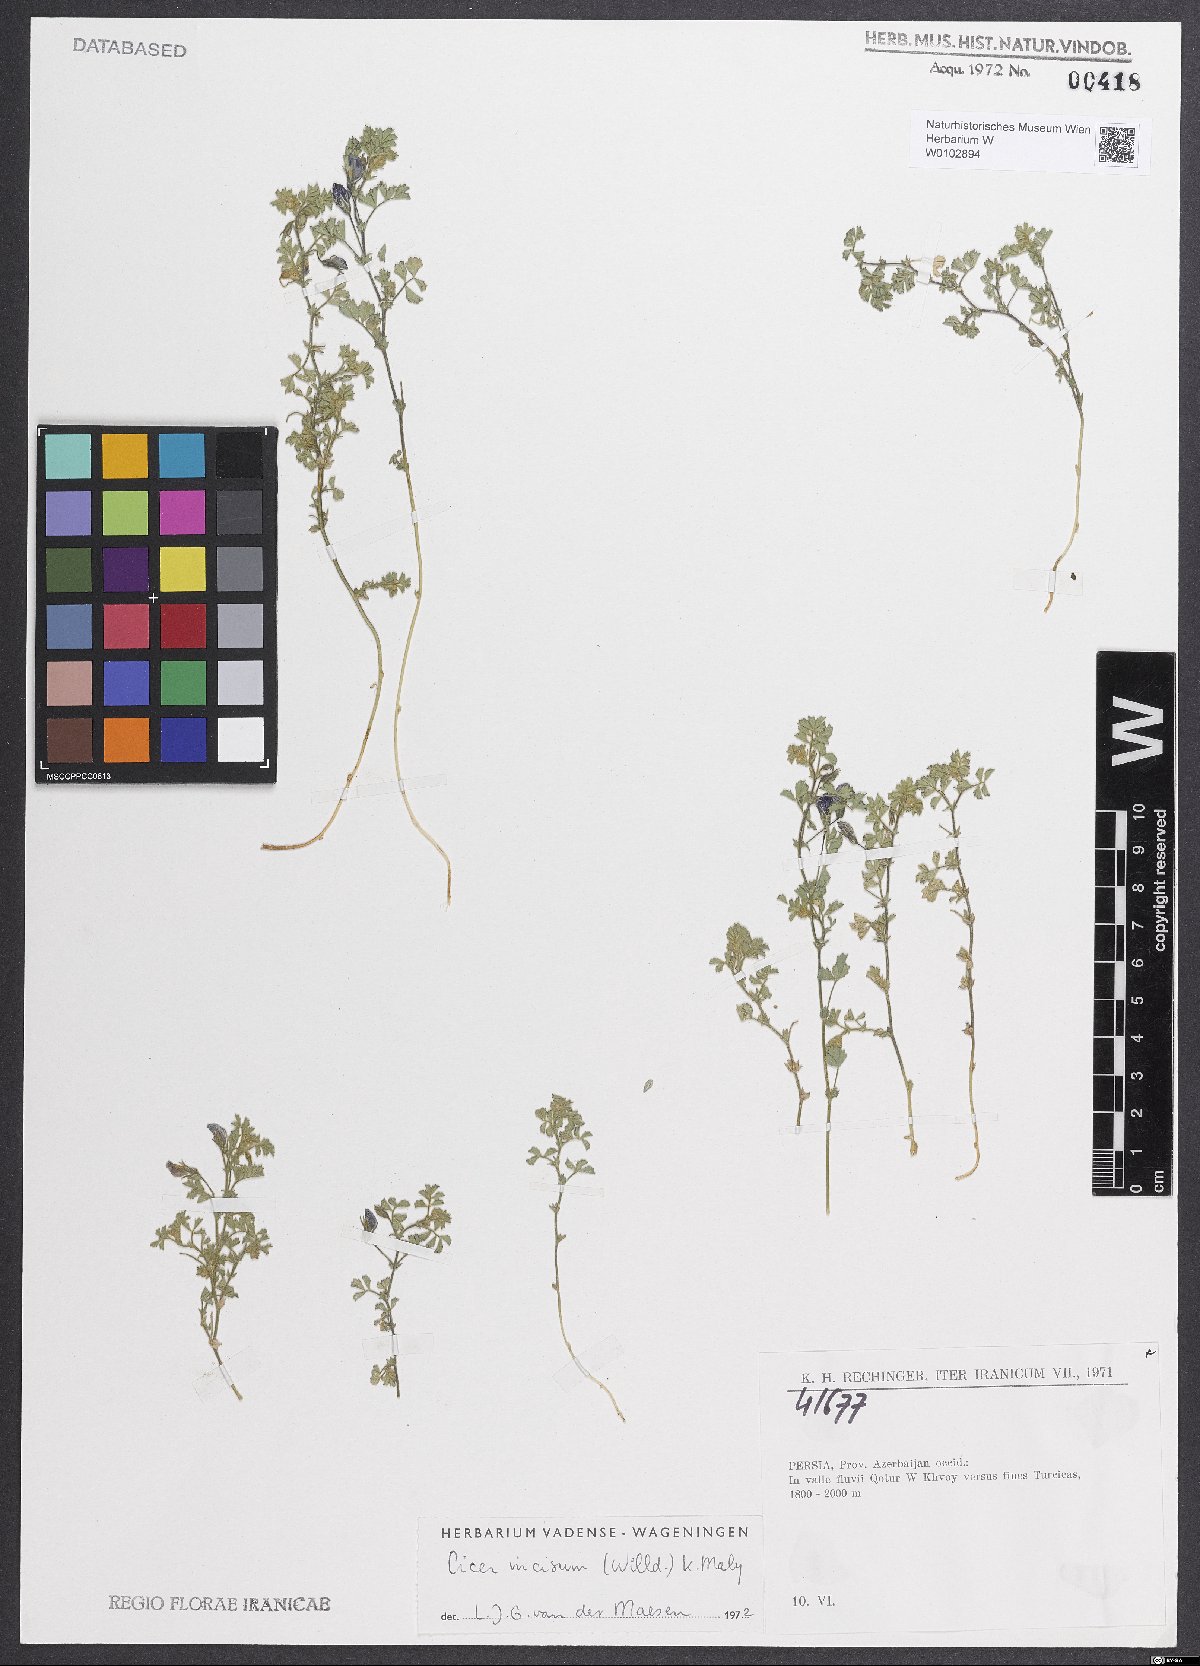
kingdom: Plantae
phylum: Tracheophyta
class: Magnoliopsida
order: Fabales
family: Fabaceae
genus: Cicer
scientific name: Cicer incisum
